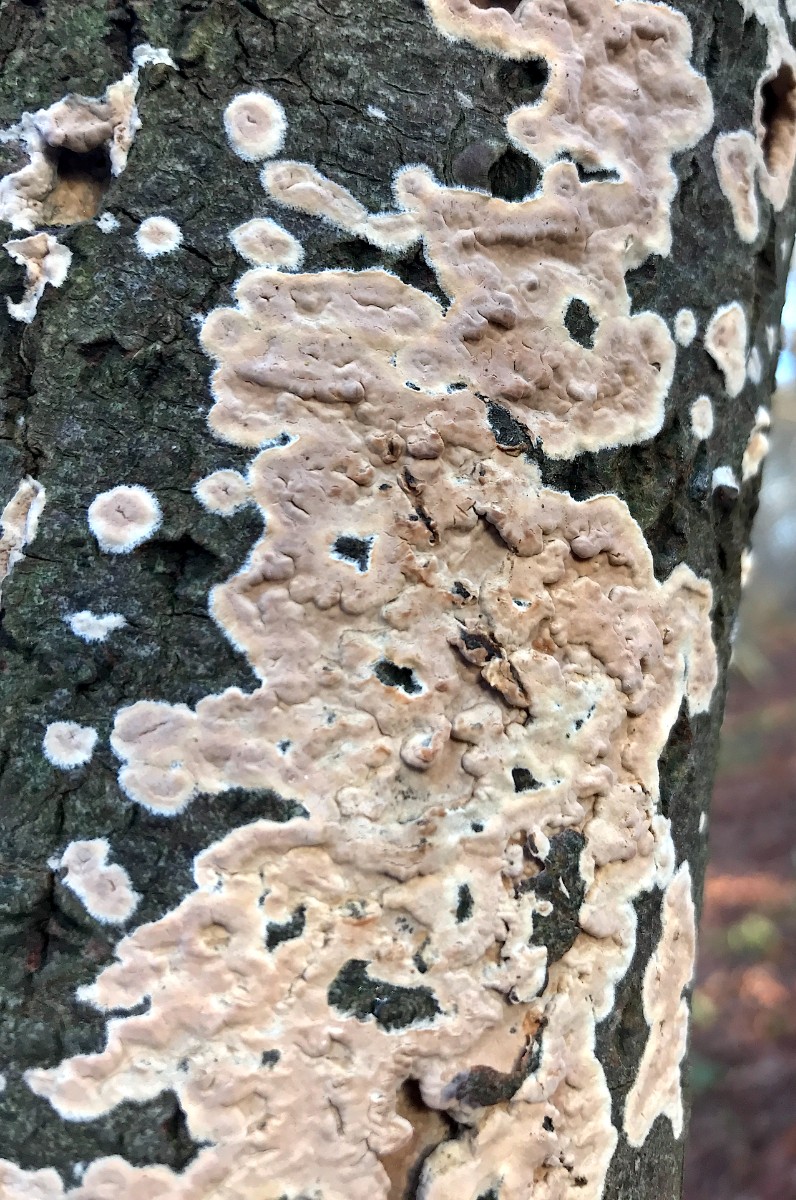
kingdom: Fungi
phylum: Basidiomycota
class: Agaricomycetes
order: Agaricales
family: Physalacriaceae
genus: Cylindrobasidium
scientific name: Cylindrobasidium evolvens
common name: sprækkehinde
